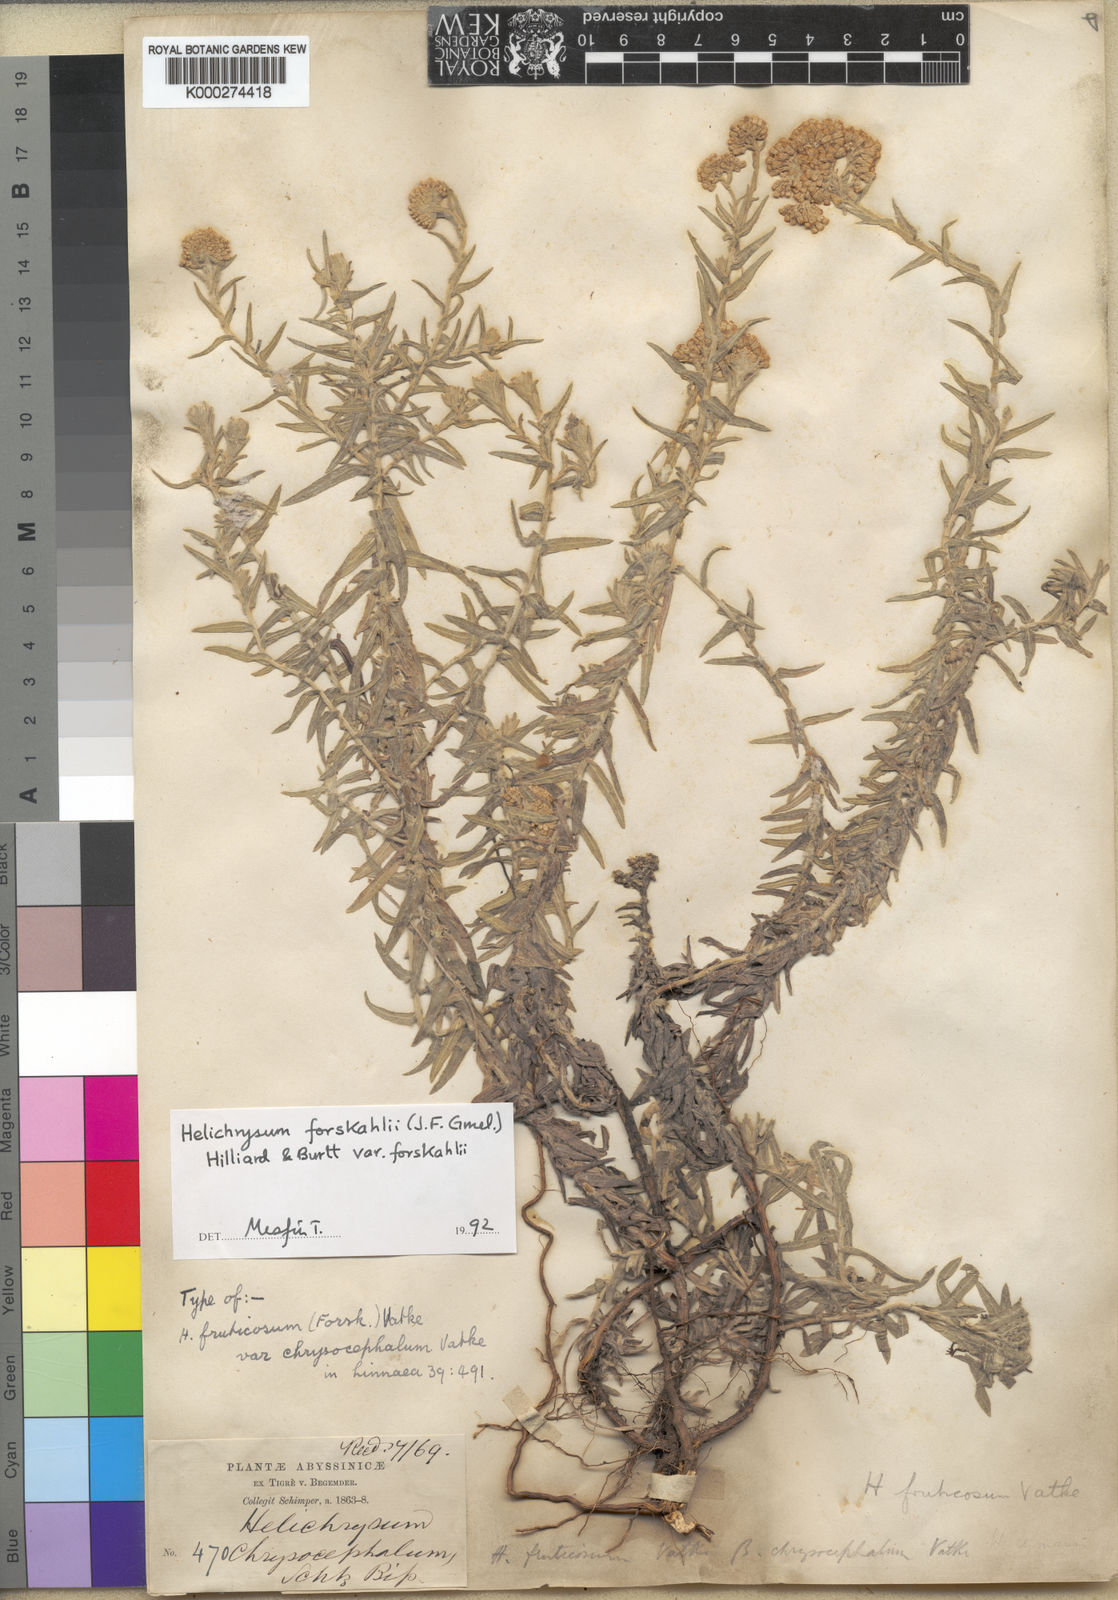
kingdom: Plantae
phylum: Tracheophyta
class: Magnoliopsida
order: Asterales
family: Asteraceae
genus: Helichrysum
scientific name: Helichrysum forskahlii
